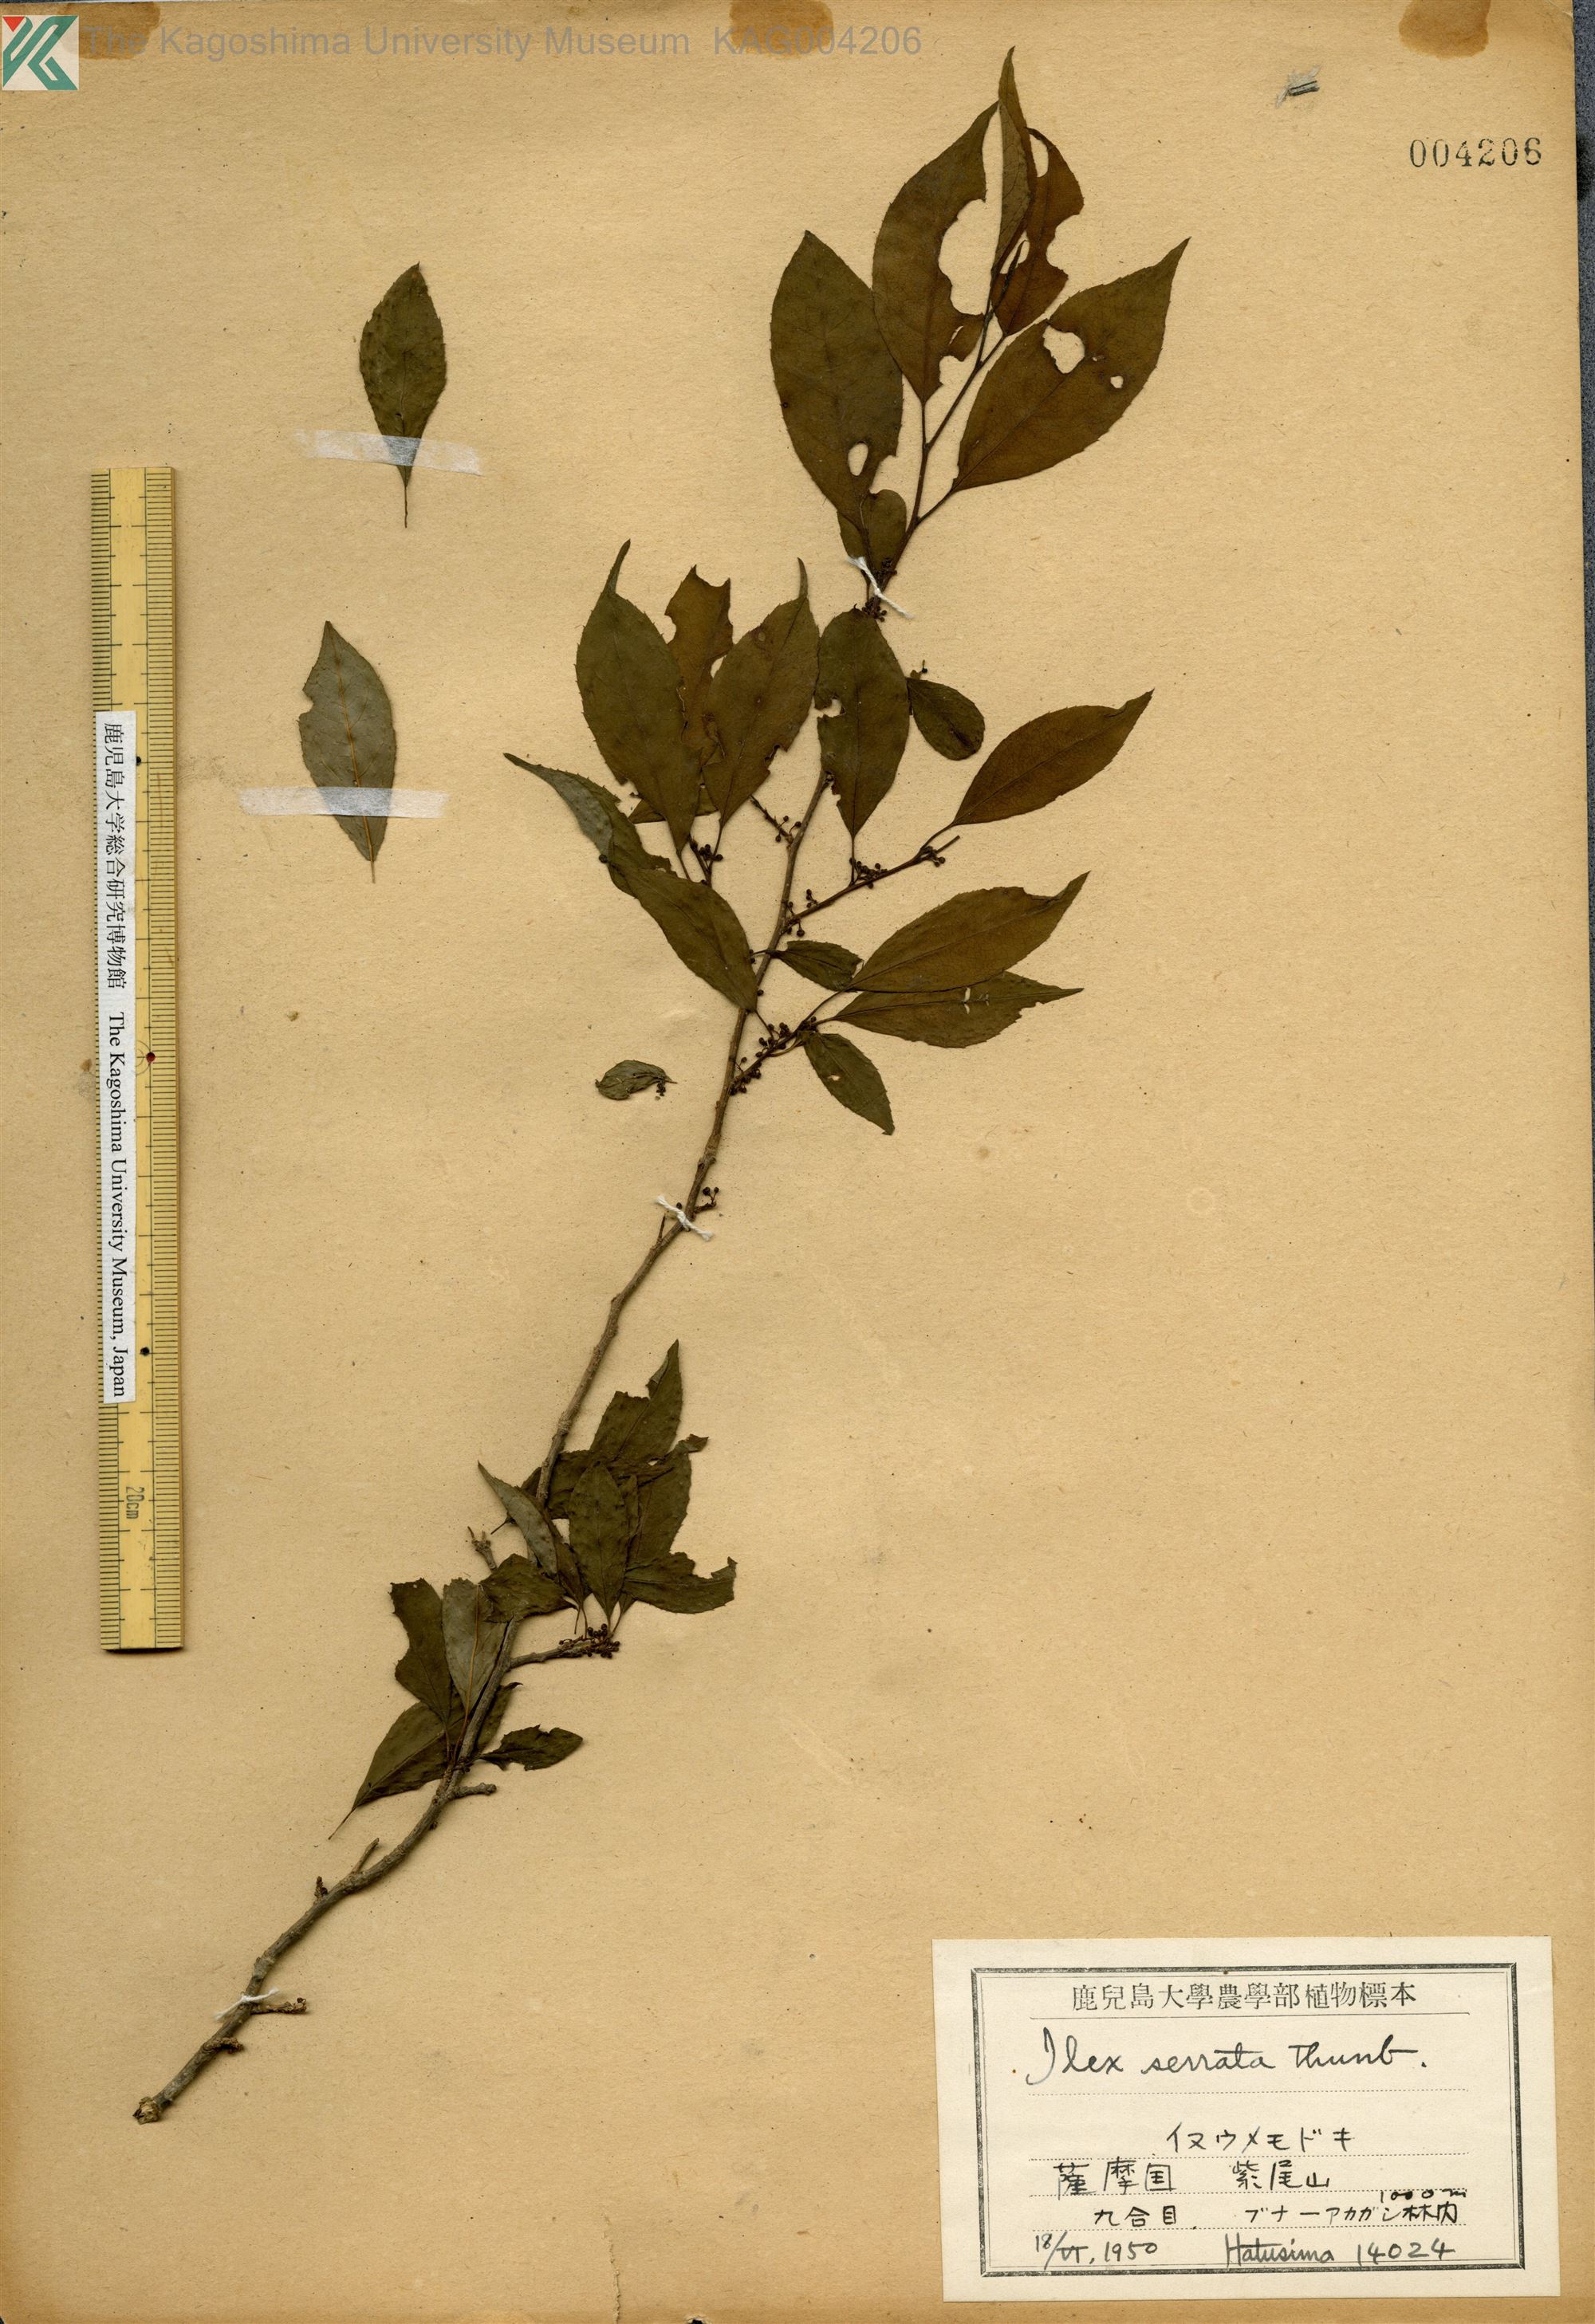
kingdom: Plantae
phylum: Tracheophyta
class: Magnoliopsida
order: Aquifoliales
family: Aquifoliaceae
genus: Ilex
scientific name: Ilex serrata
